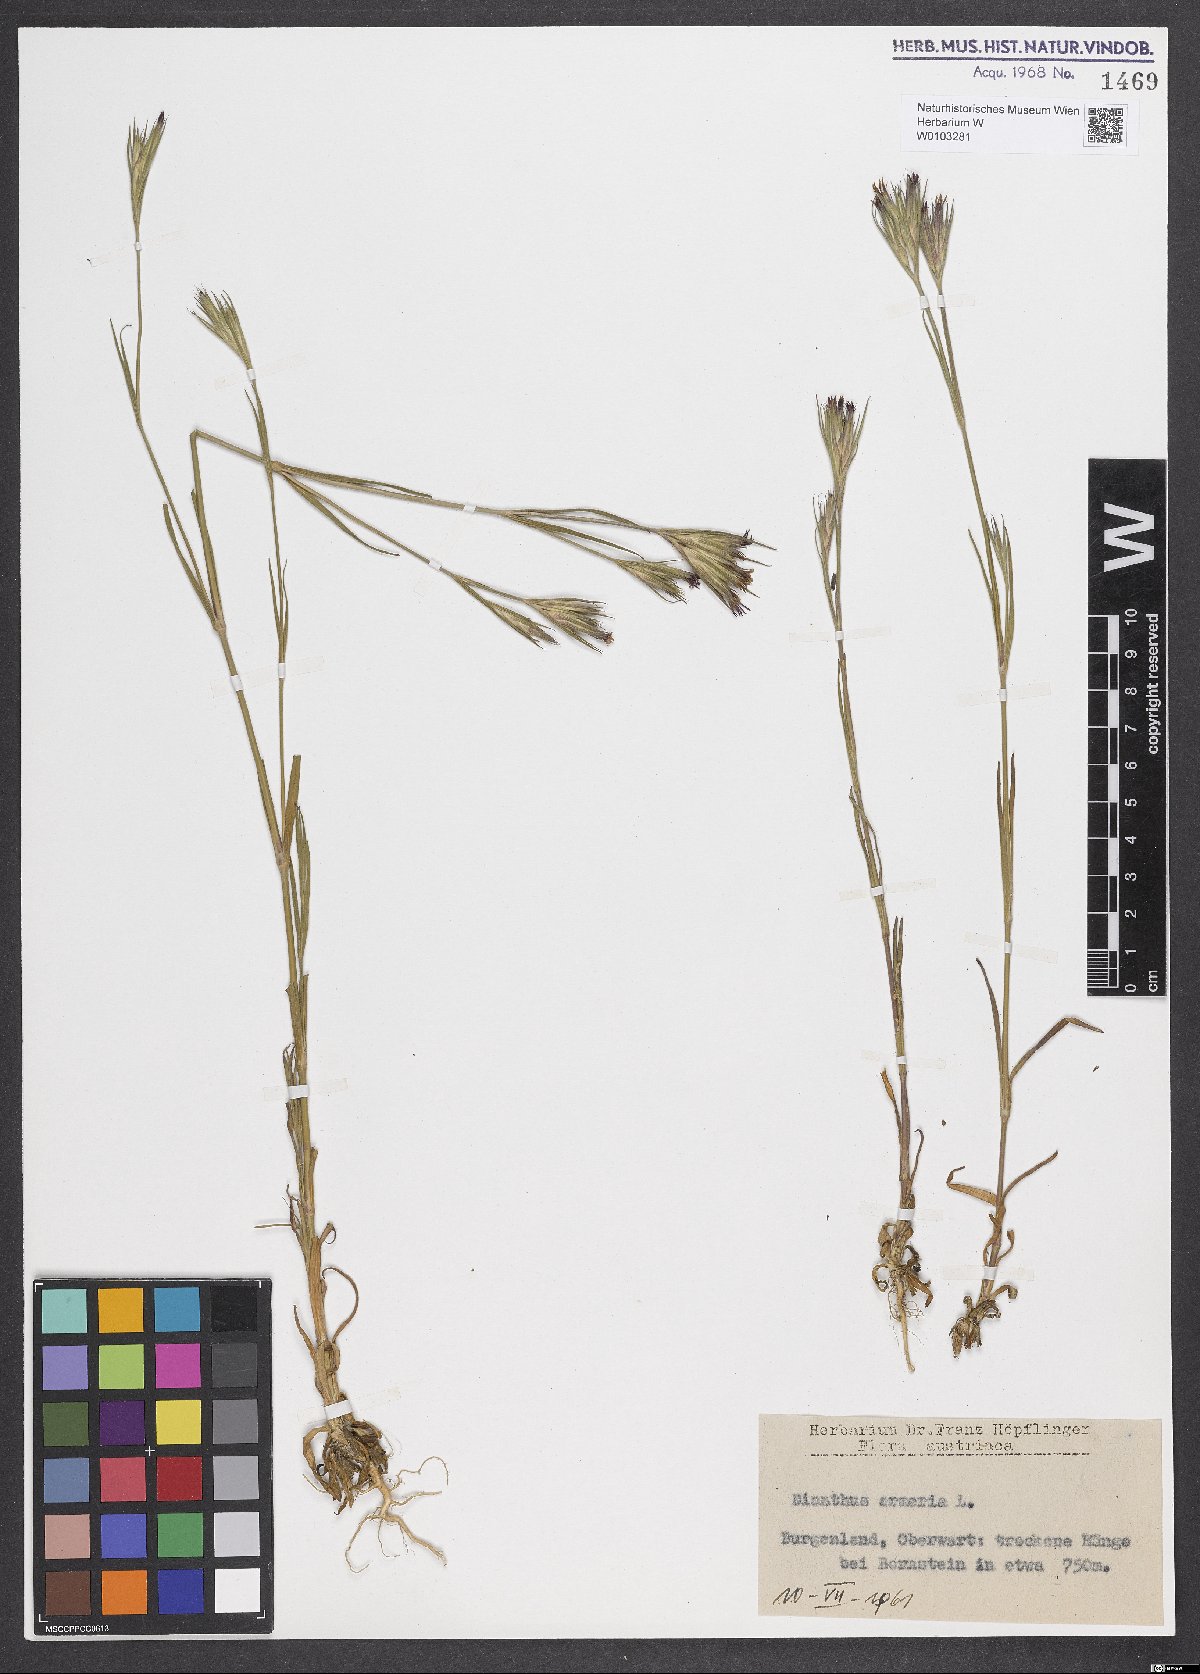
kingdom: Plantae
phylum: Tracheophyta
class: Magnoliopsida
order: Caryophyllales
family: Caryophyllaceae
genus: Dianthus
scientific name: Dianthus armeria
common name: Deptford pink
